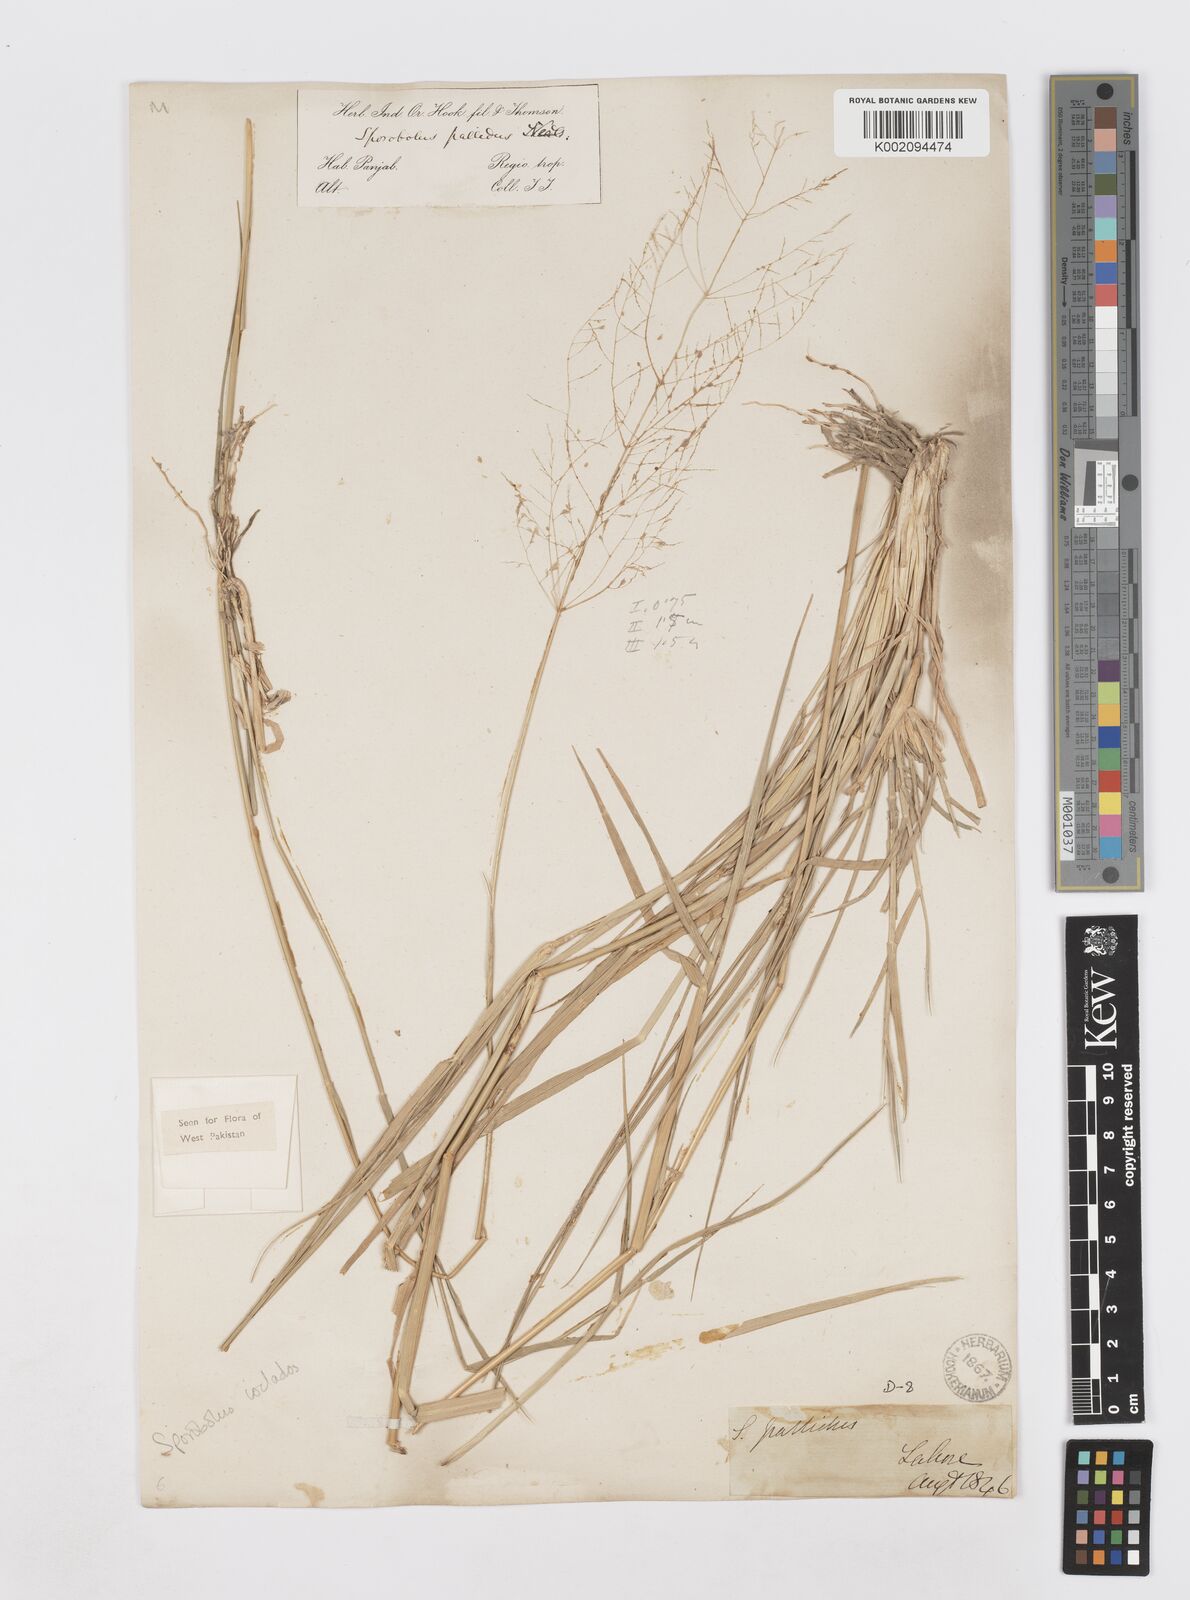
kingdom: Plantae
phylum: Tracheophyta
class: Liliopsida
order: Poales
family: Poaceae
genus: Sporobolus
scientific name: Sporobolus ioclados
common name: Pan dropseed
